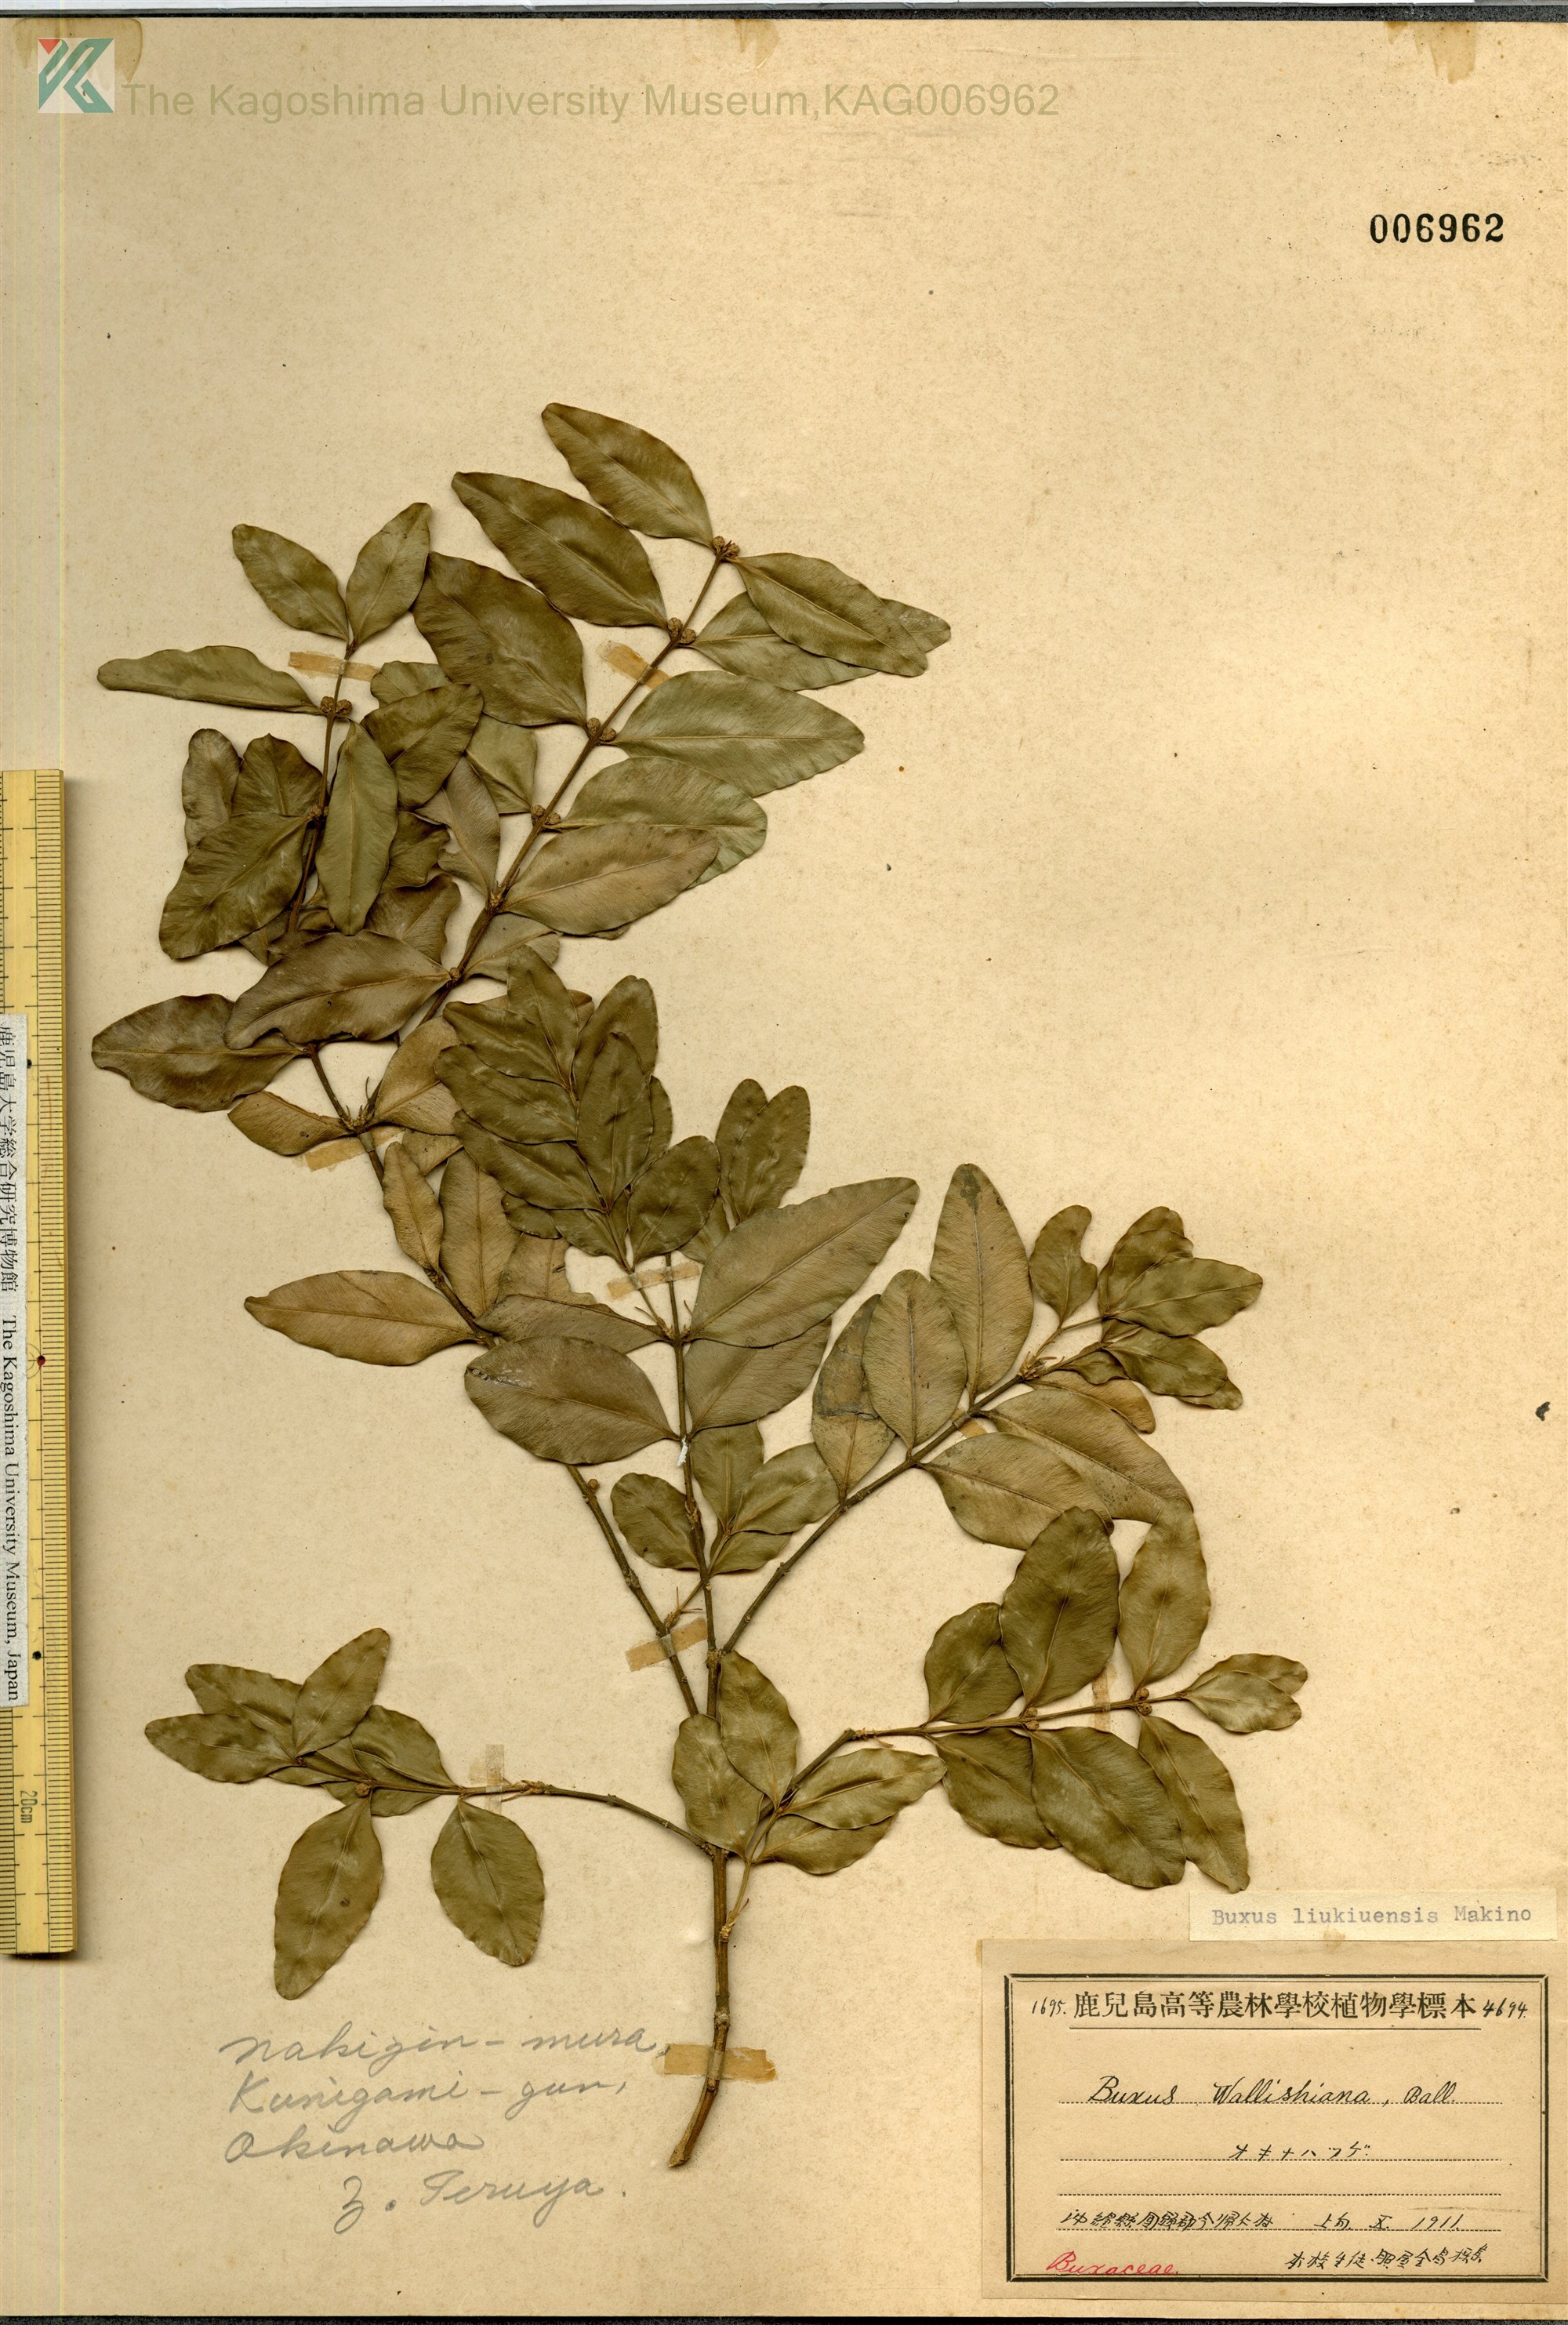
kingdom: Plantae
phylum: Tracheophyta
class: Magnoliopsida
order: Buxales
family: Buxaceae
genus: Buxus
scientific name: Buxus liukiuensis
